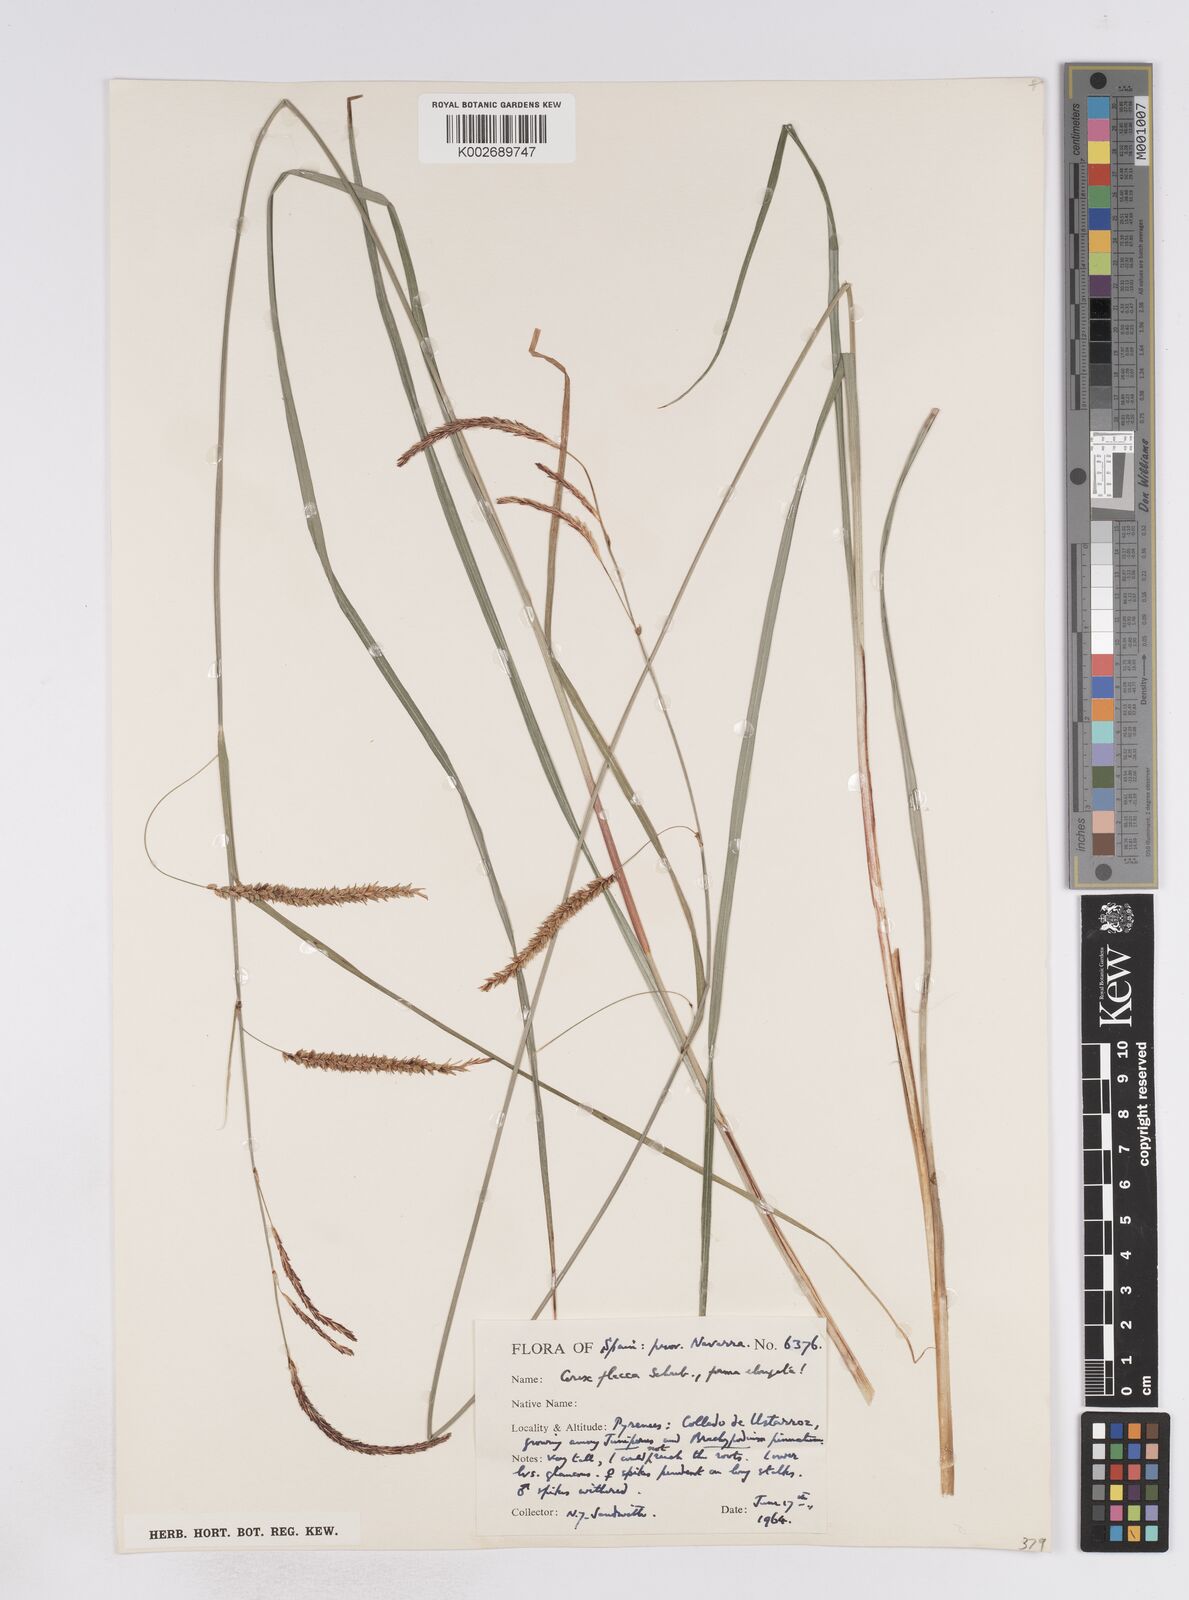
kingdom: Plantae
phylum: Tracheophyta
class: Liliopsida
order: Poales
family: Cyperaceae
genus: Carex
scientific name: Carex flacca
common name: Glaucous sedge
